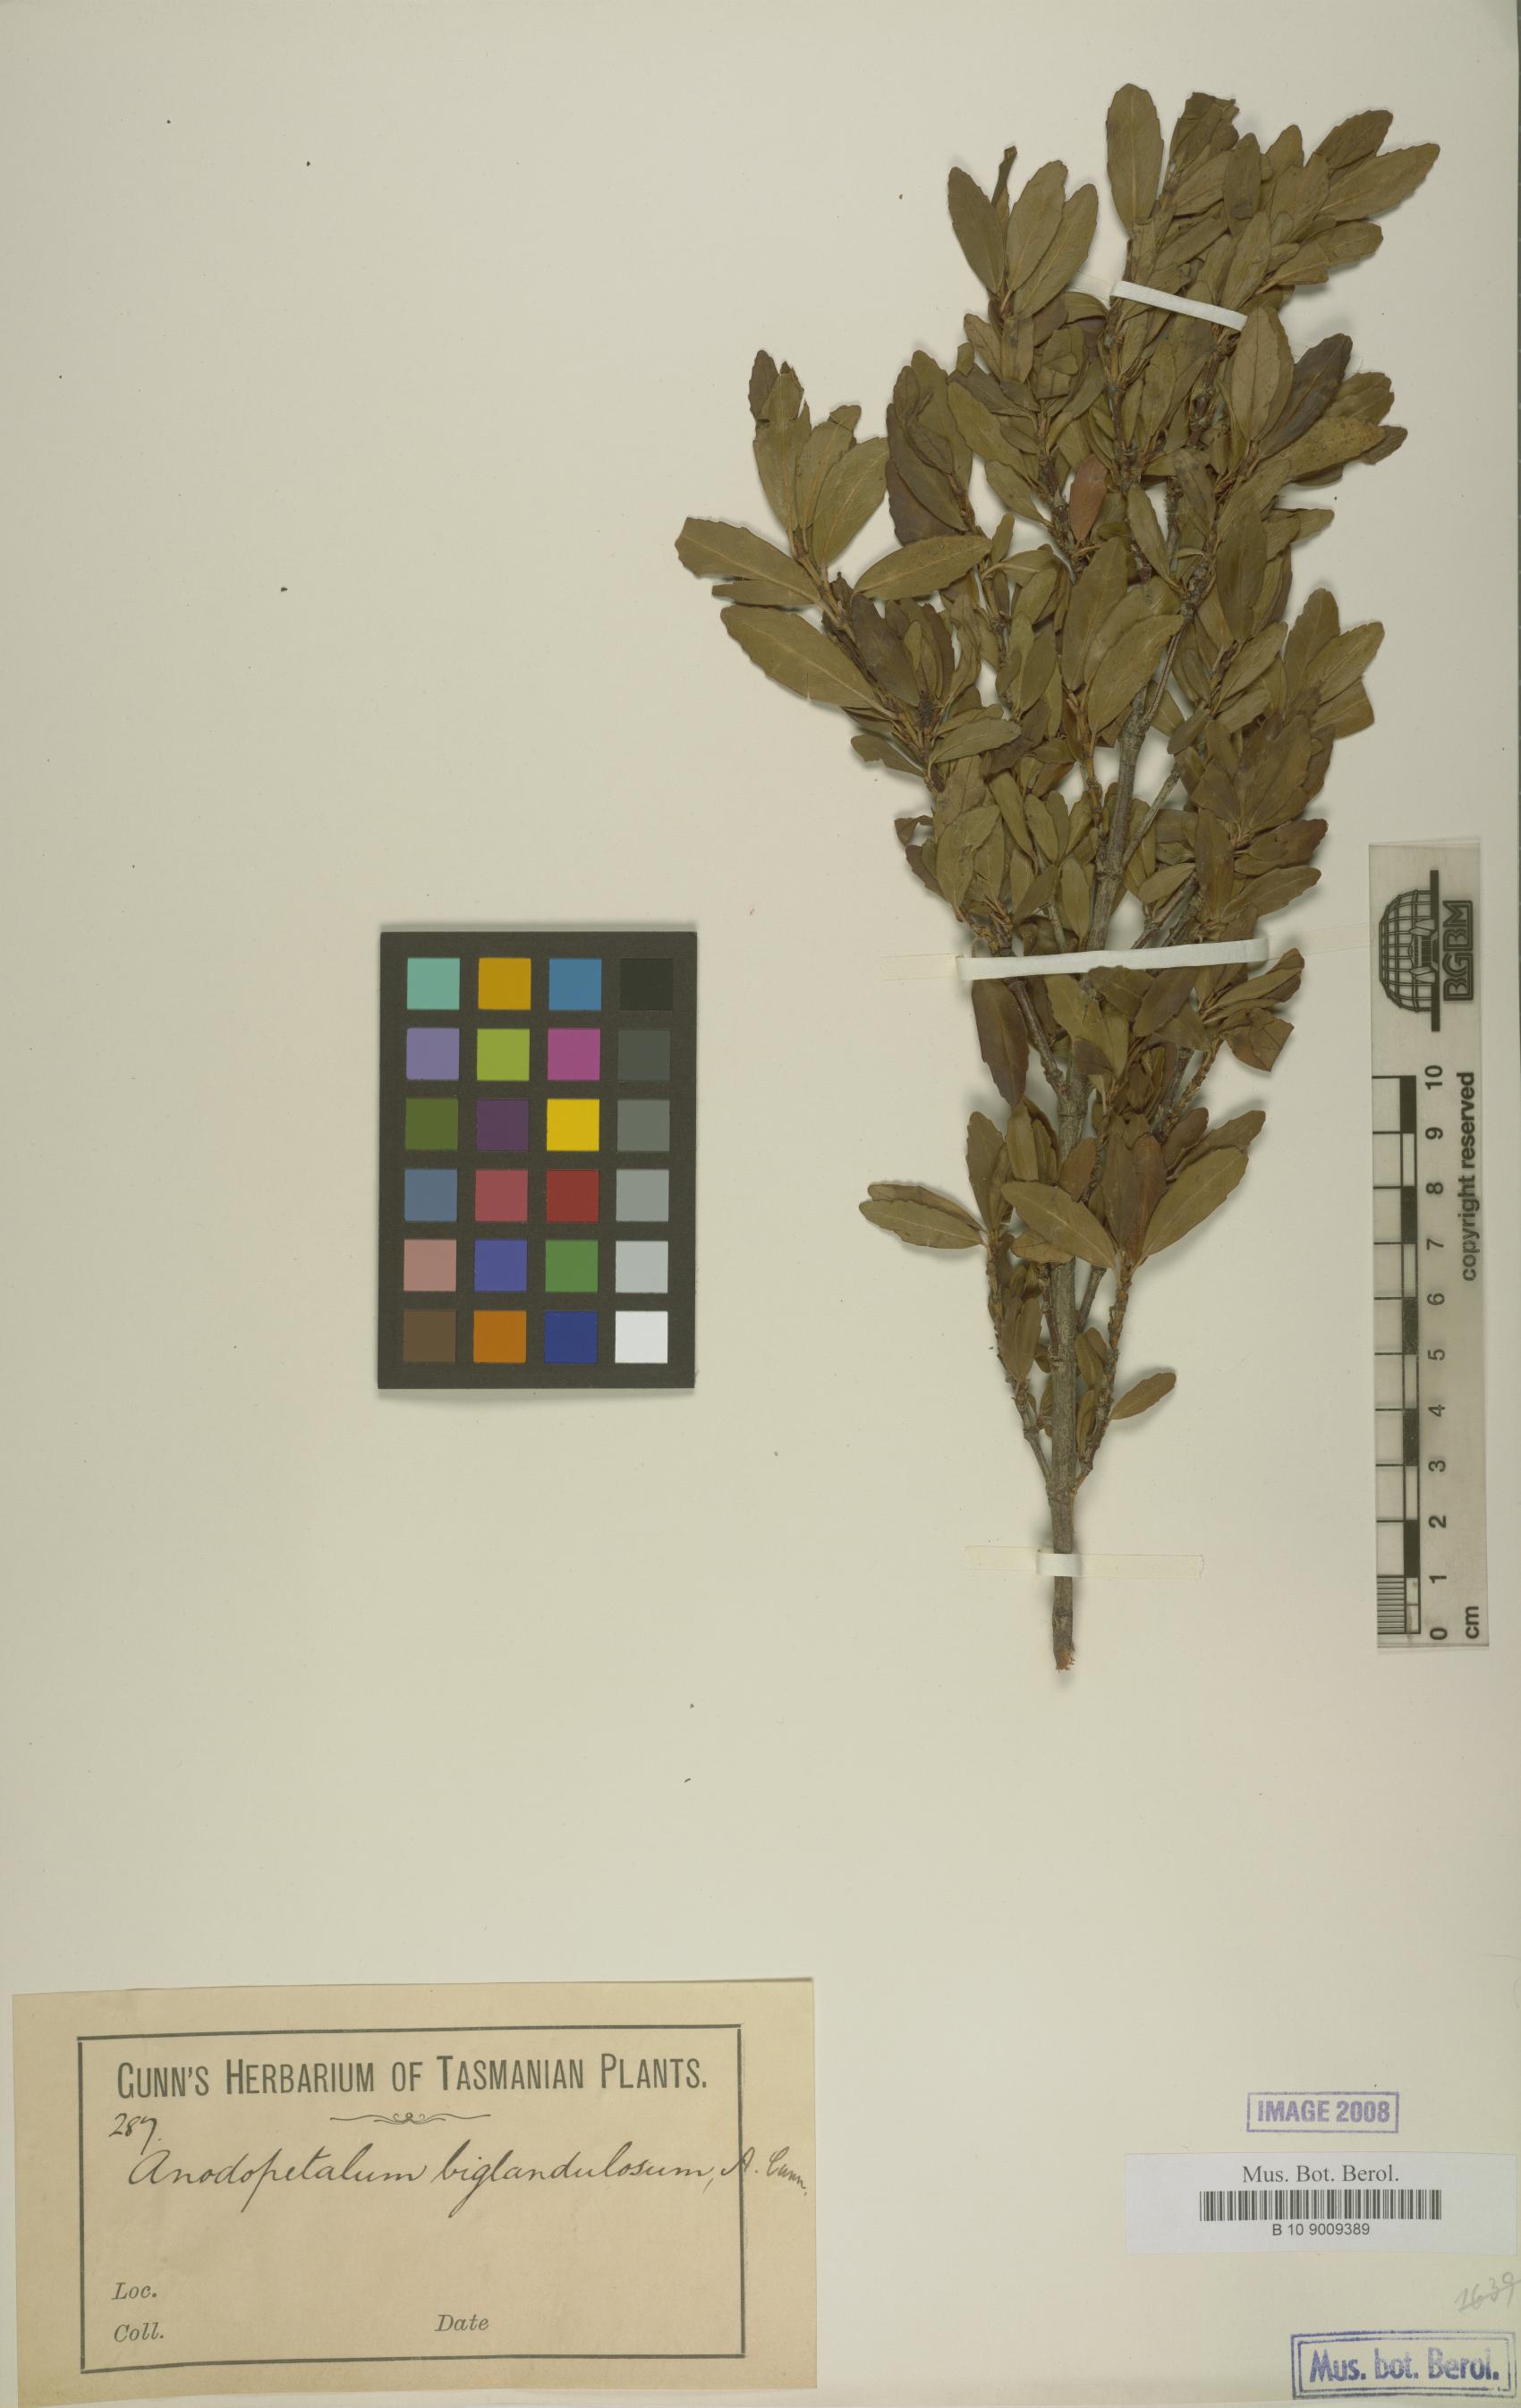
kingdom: Plantae
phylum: Tracheophyta
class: Magnoliopsida
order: Oxalidales
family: Cunoniaceae
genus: Anodopetalum
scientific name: Anodopetalum biglandulosum
